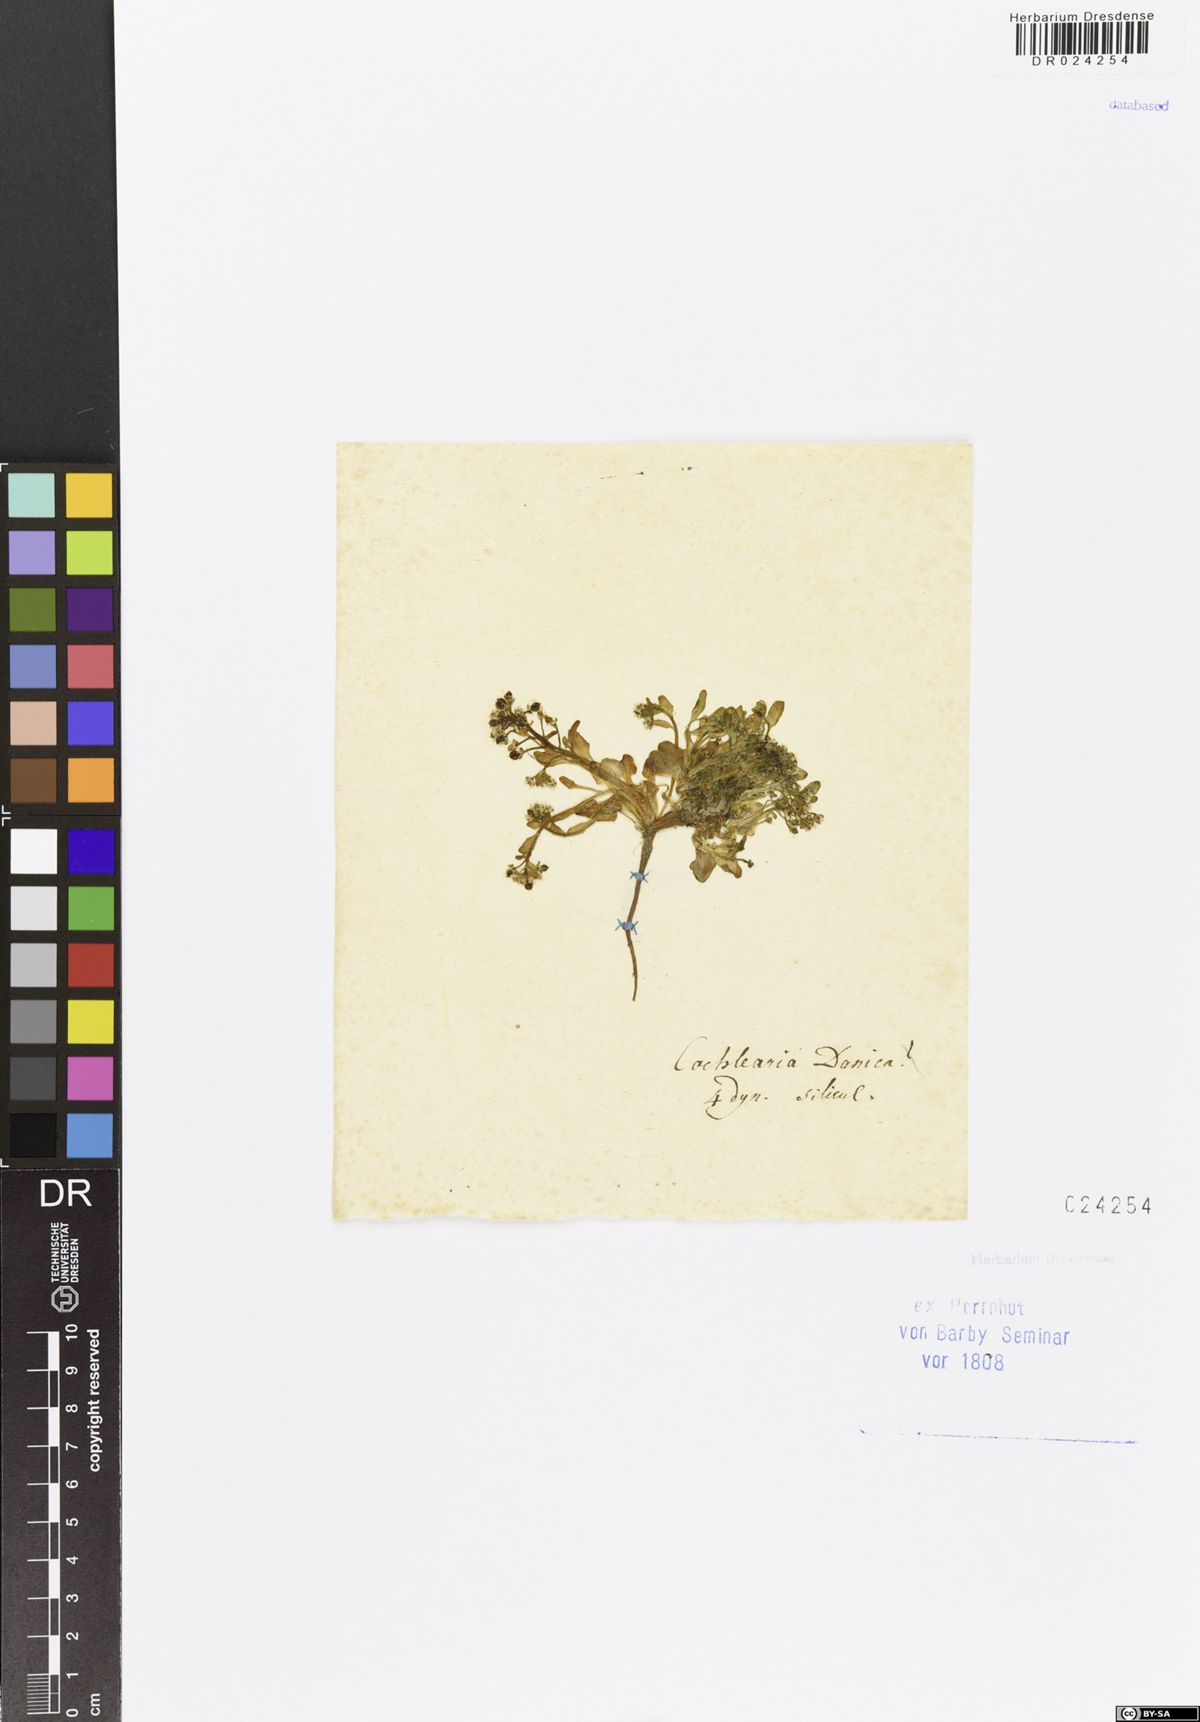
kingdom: Plantae
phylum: Tracheophyta
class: Magnoliopsida
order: Brassicales
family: Brassicaceae
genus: Cochlearia
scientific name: Cochlearia danica
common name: Early scurvygrass
